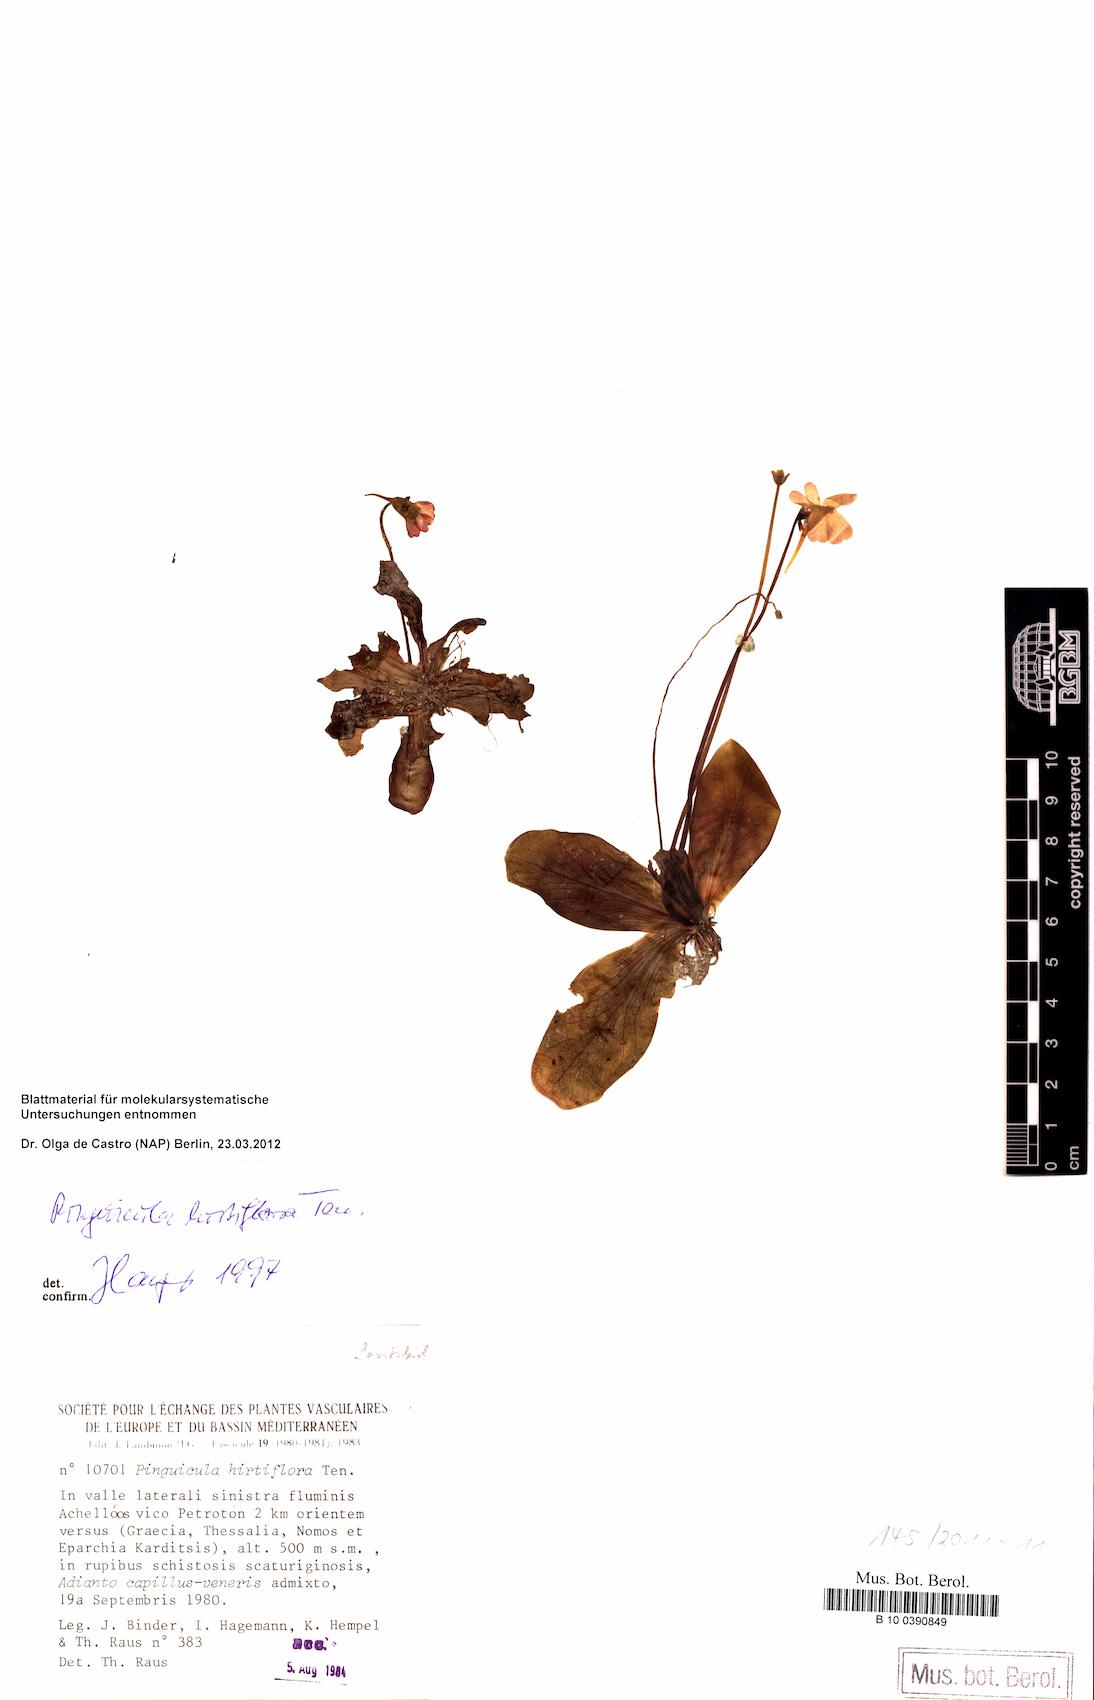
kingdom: Plantae
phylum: Tracheophyta
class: Magnoliopsida
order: Lamiales
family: Lentibulariaceae
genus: Pinguicula
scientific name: Pinguicula crystallina
